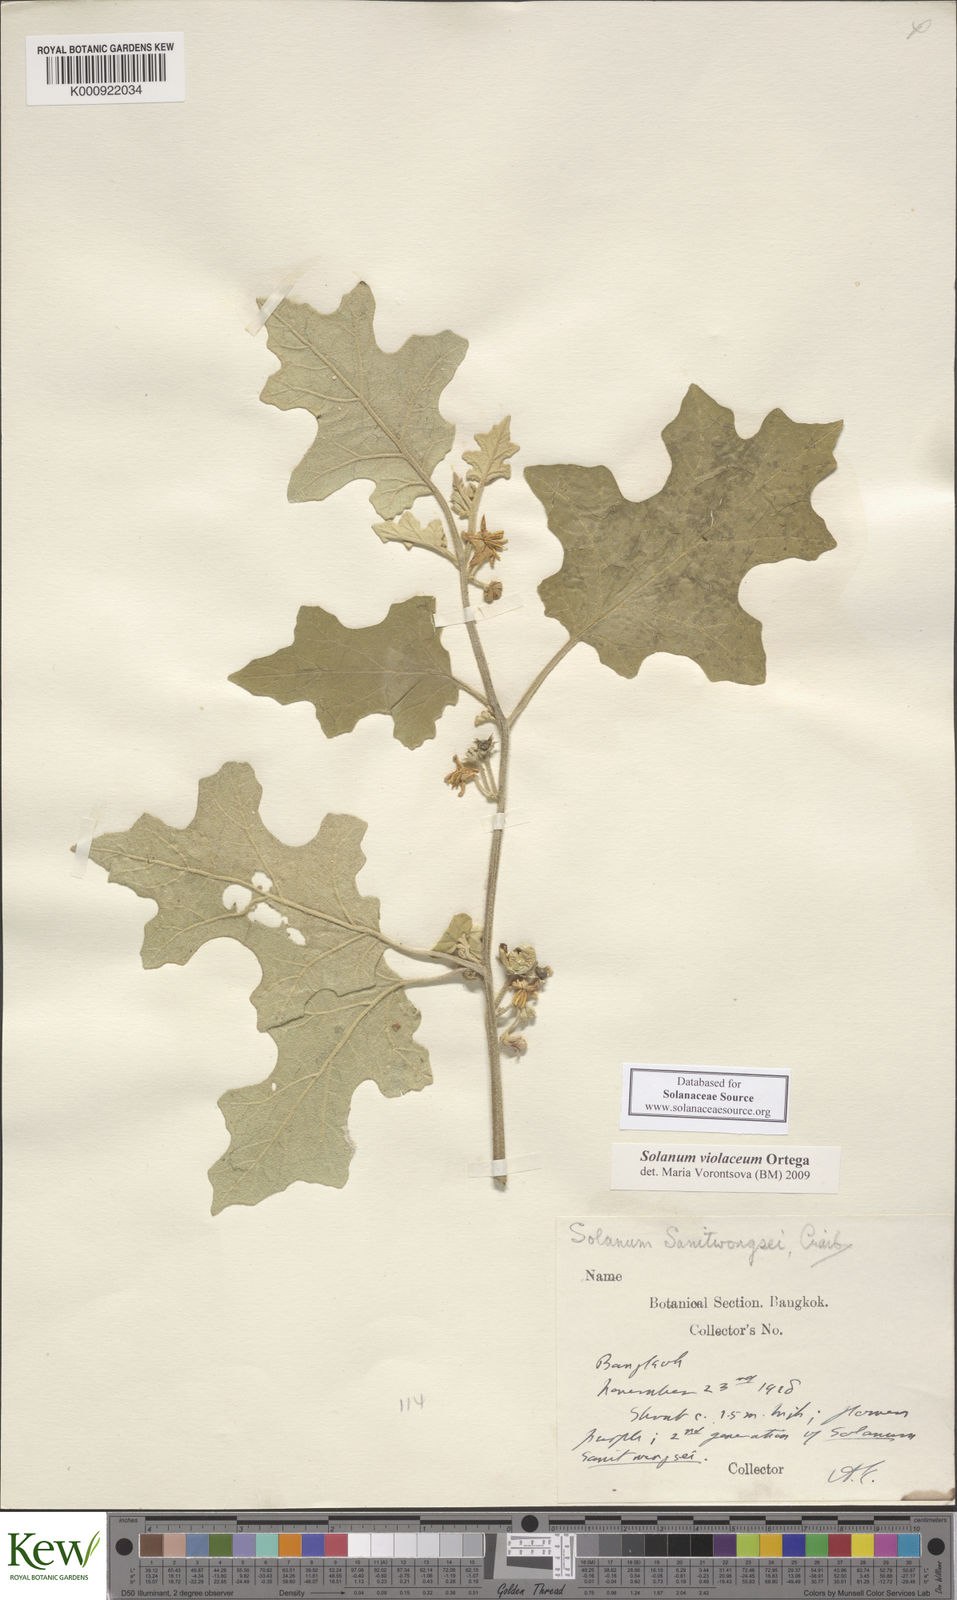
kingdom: Plantae
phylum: Tracheophyta
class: Magnoliopsida
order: Solanales
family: Solanaceae
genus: Solanum
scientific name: Solanum violaceum
